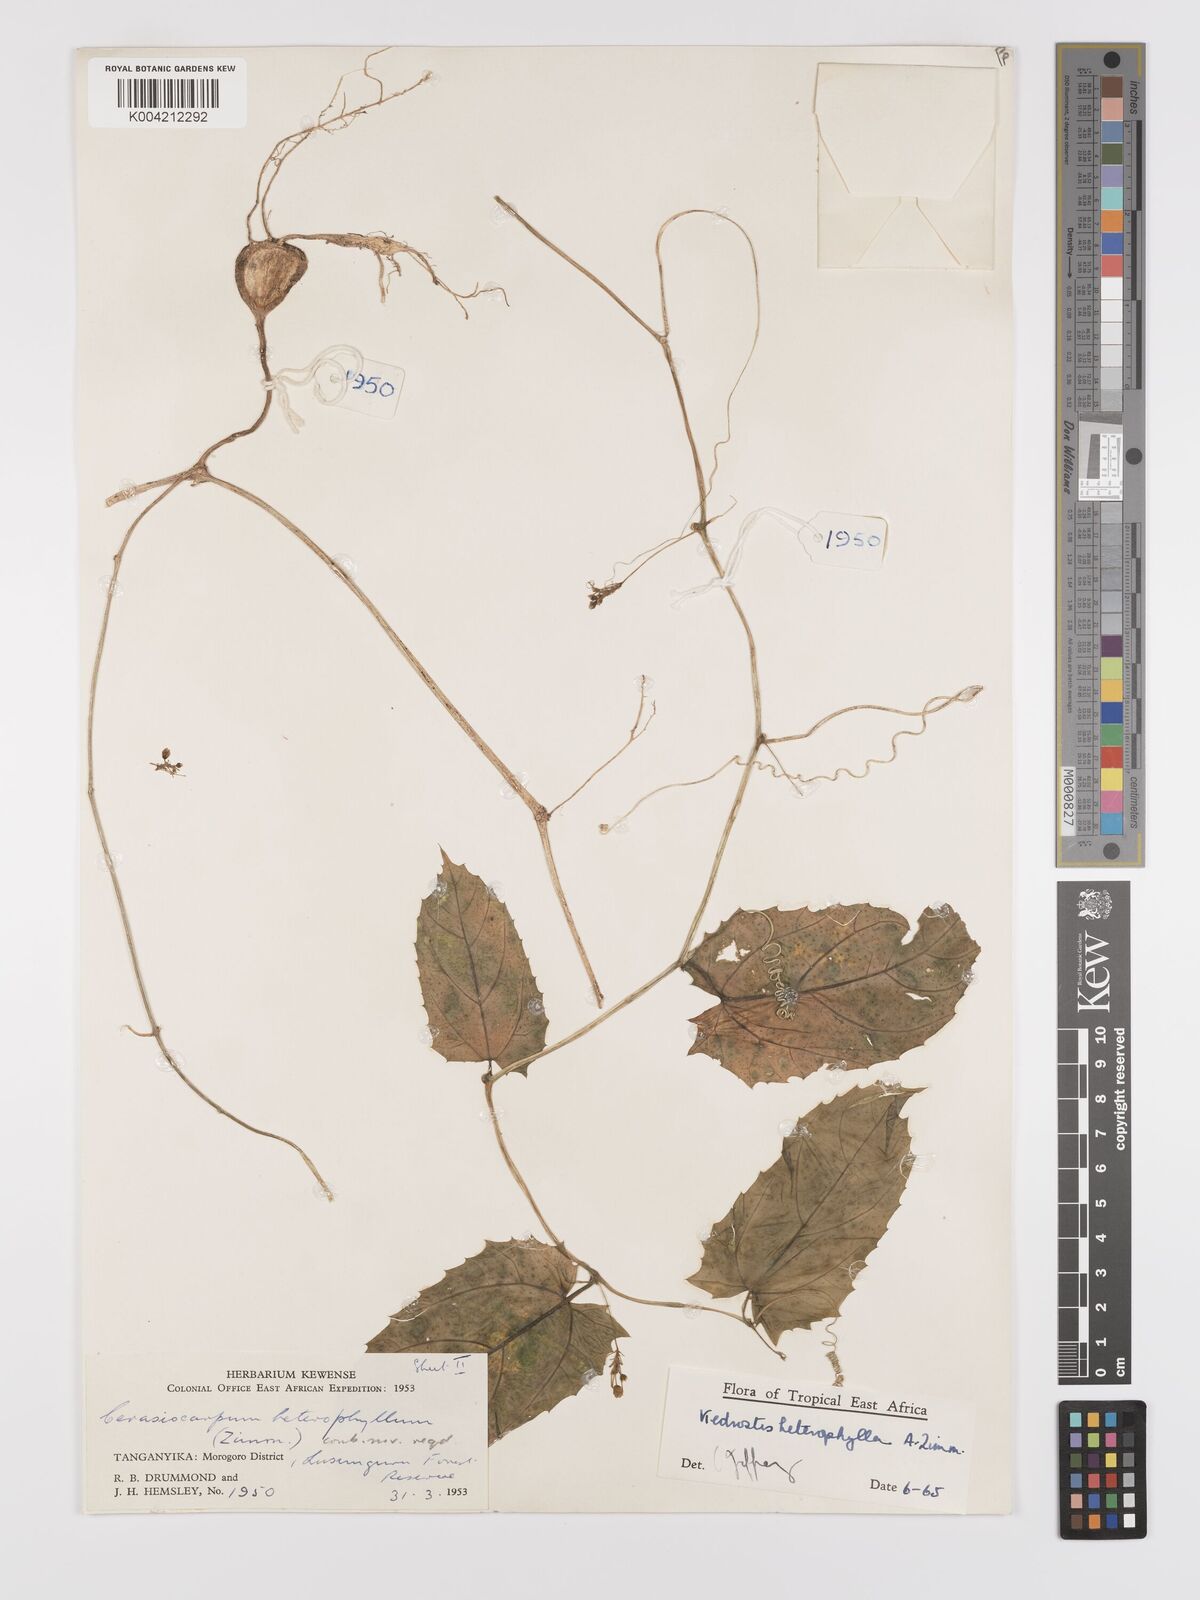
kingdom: Plantae
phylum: Tracheophyta
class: Magnoliopsida
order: Cucurbitales
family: Cucurbitaceae
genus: Kedrostis
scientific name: Kedrostis heterophylla
